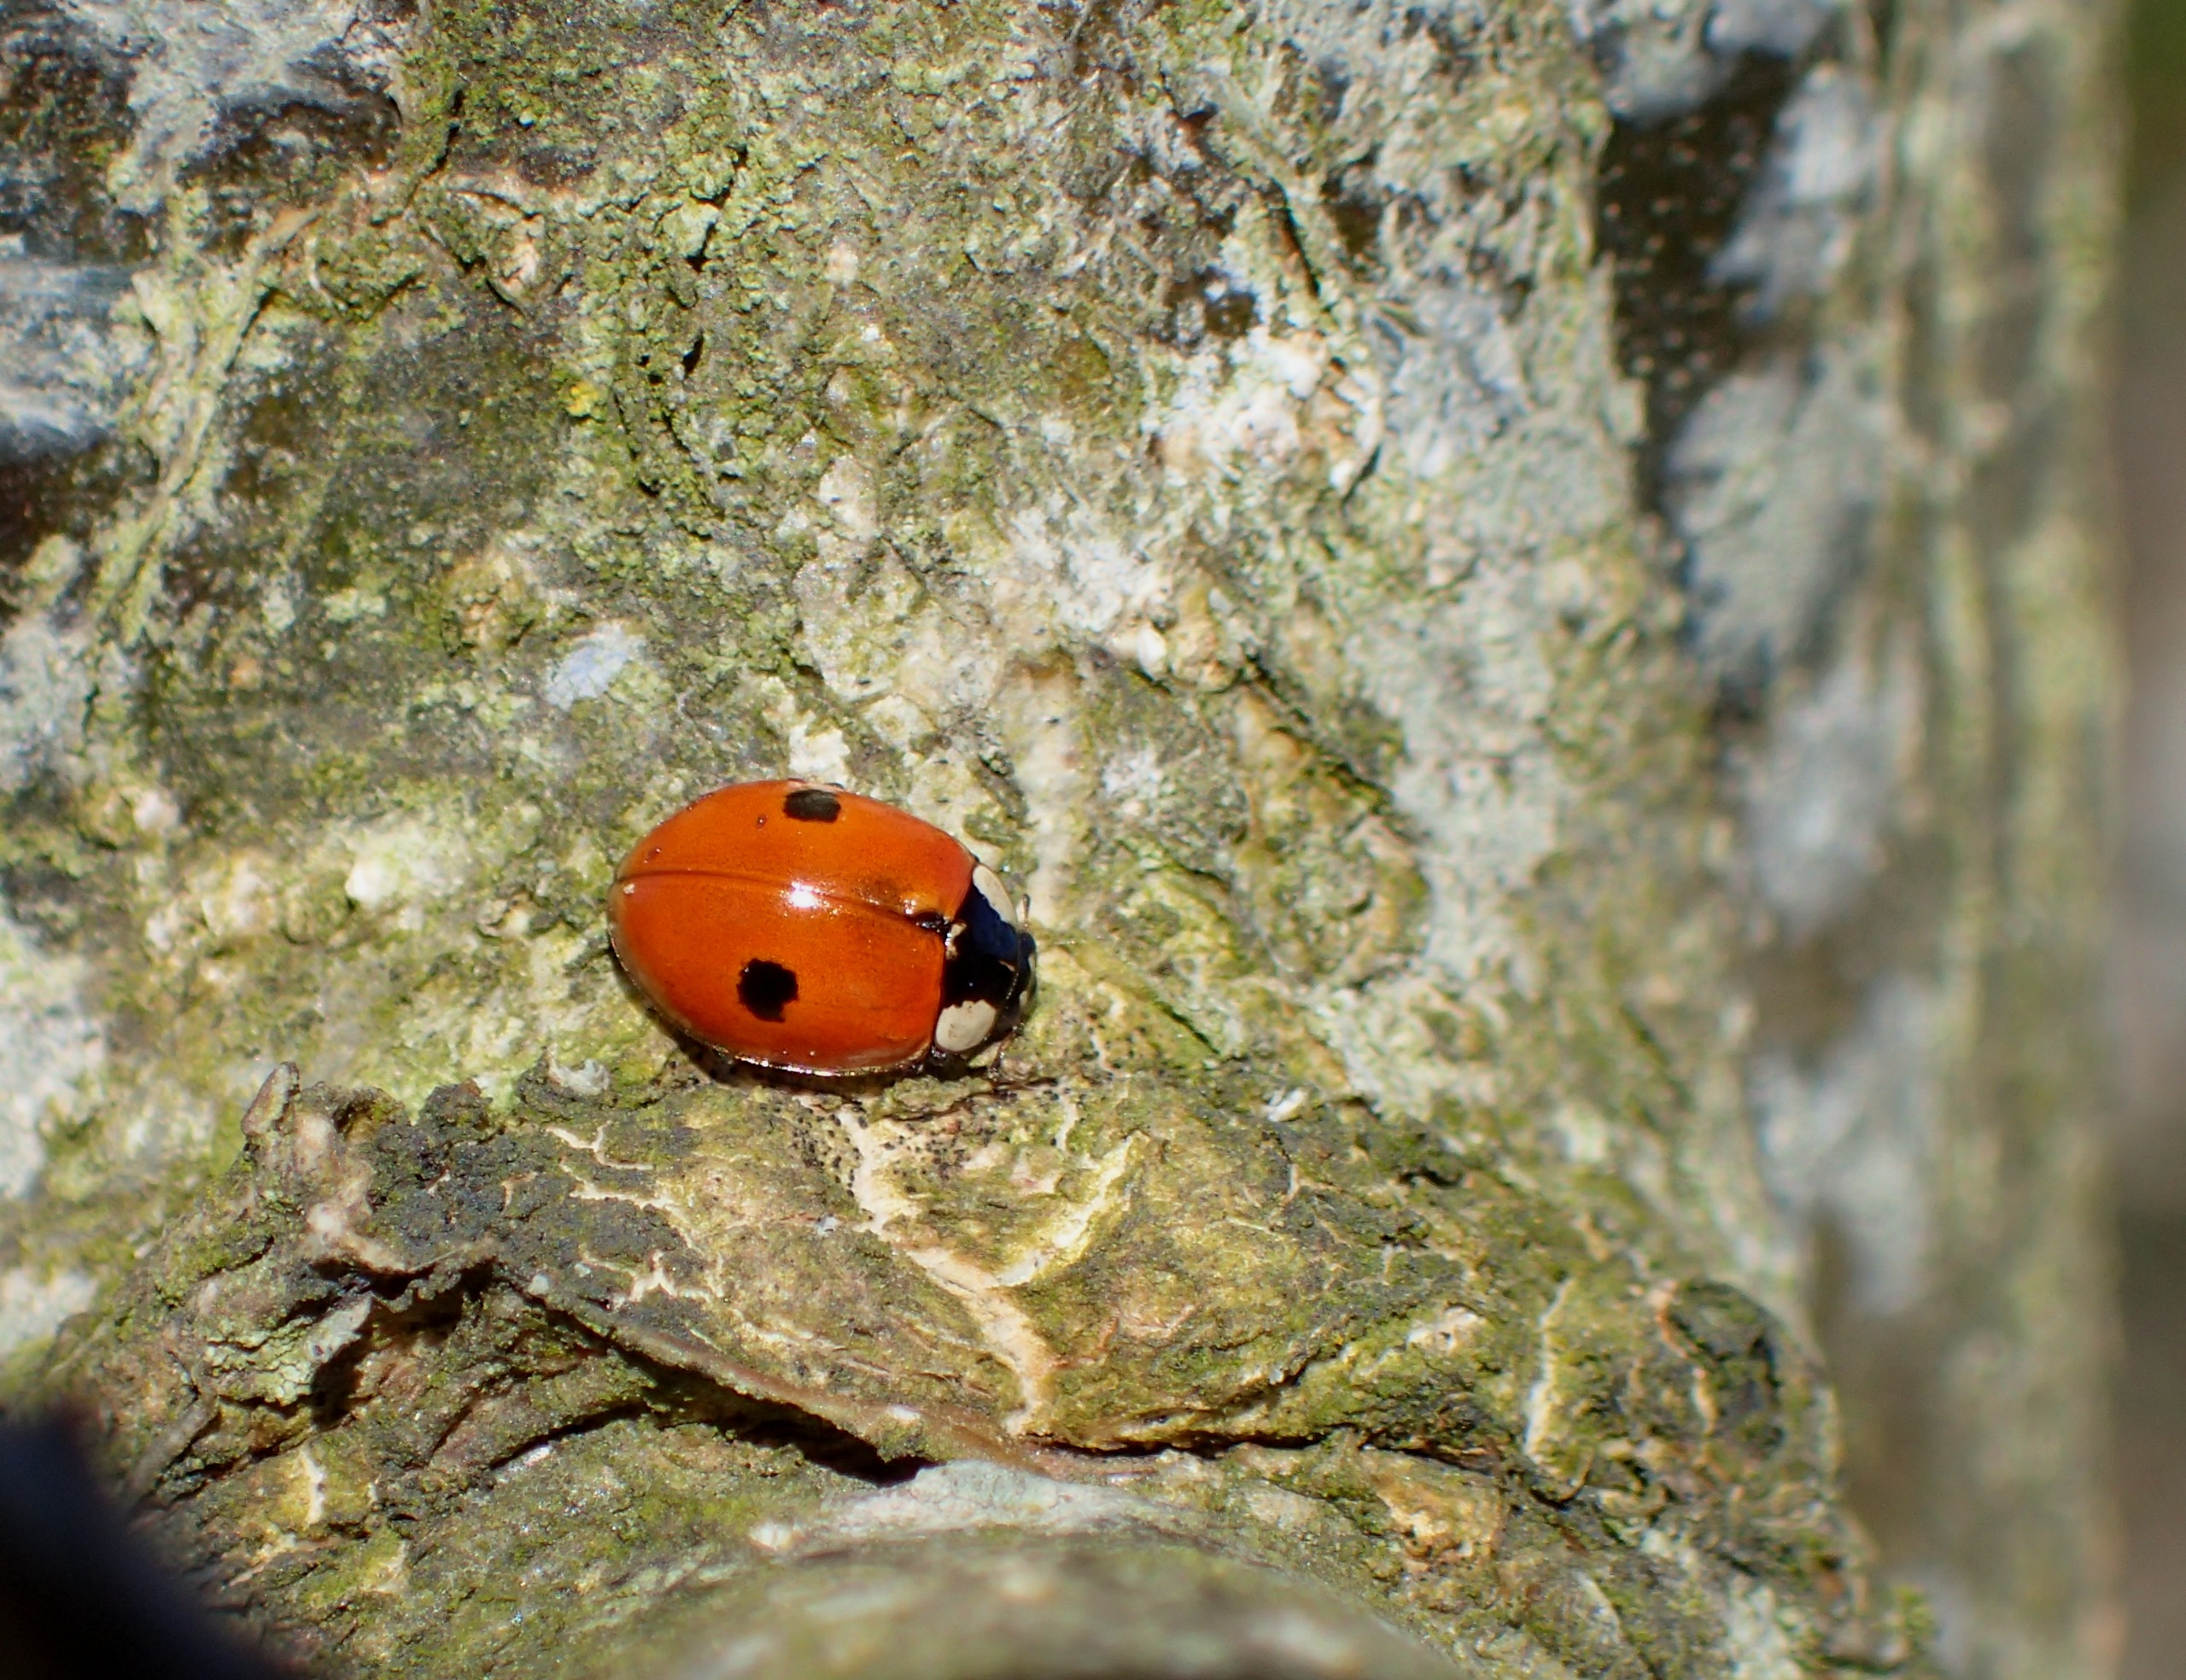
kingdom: Animalia
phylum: Arthropoda
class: Insecta
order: Coleoptera
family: Coccinellidae
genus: Adalia
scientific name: Adalia bipunctata
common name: Toplettet mariehøne
